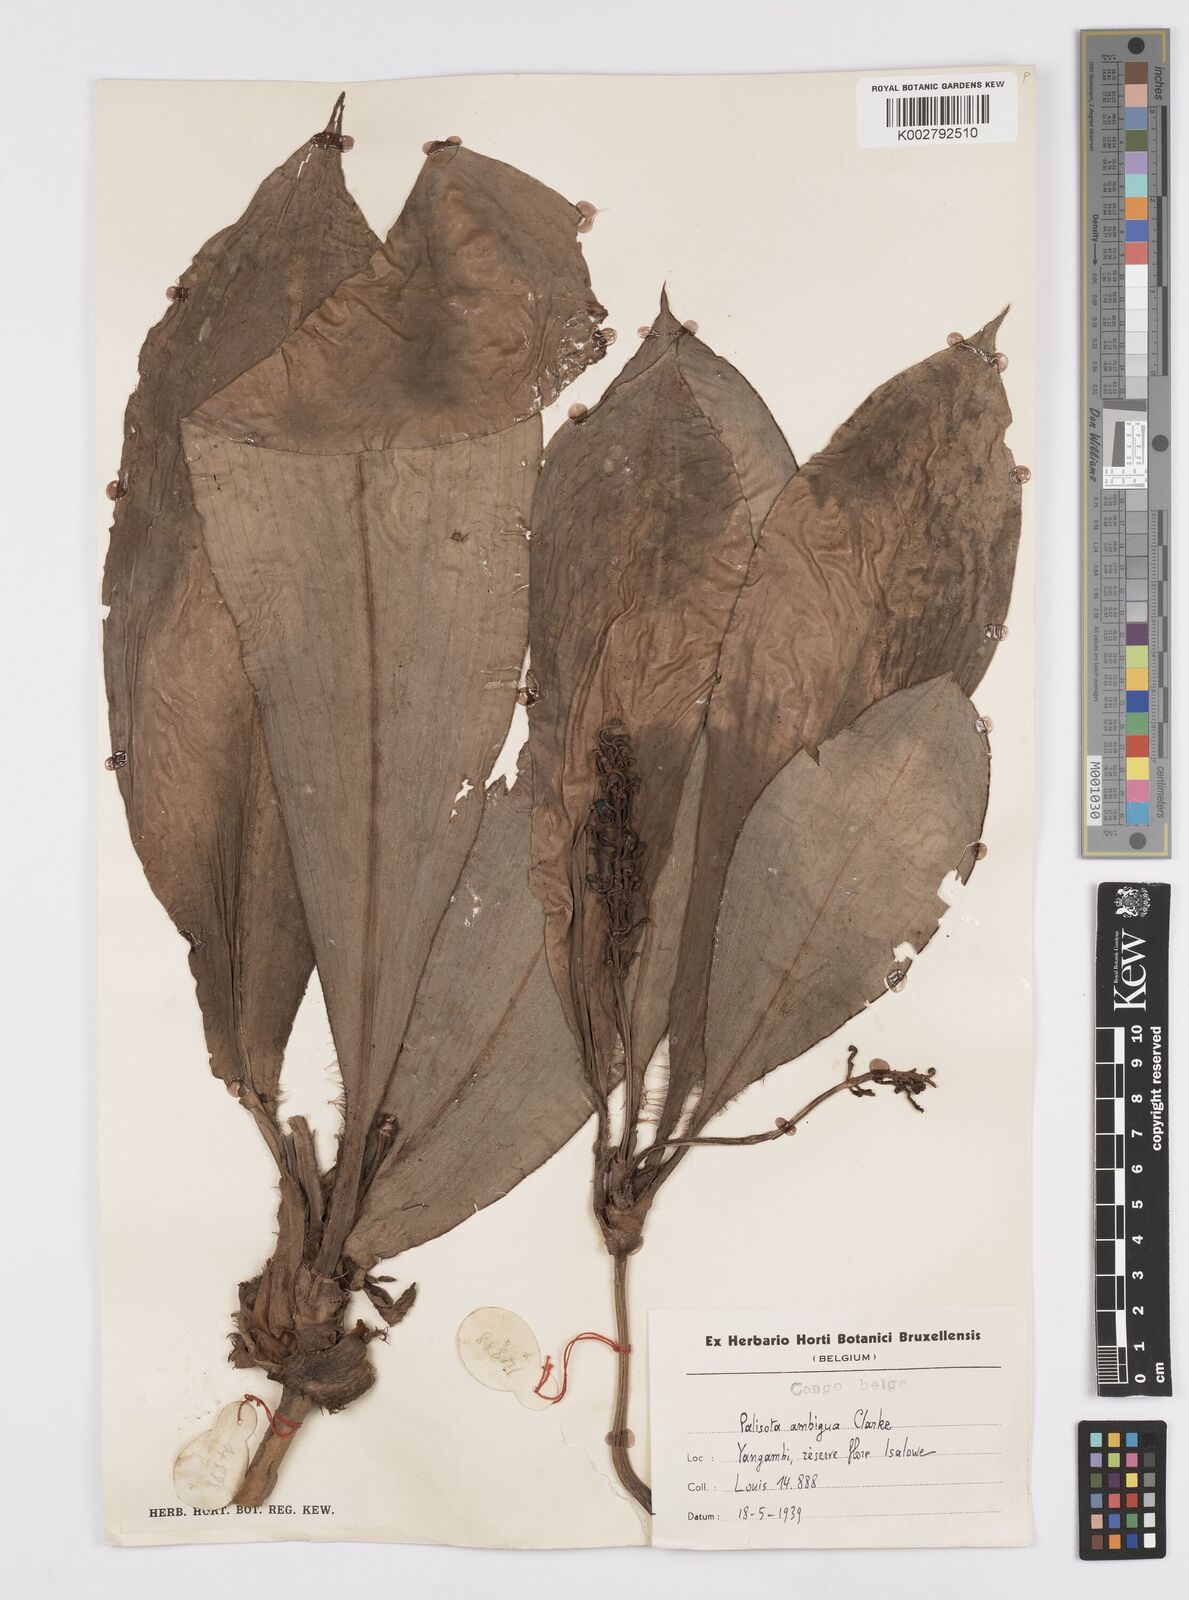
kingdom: Plantae
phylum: Tracheophyta
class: Liliopsida
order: Commelinales
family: Commelinaceae
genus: Palisota
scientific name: Palisota ambigua
